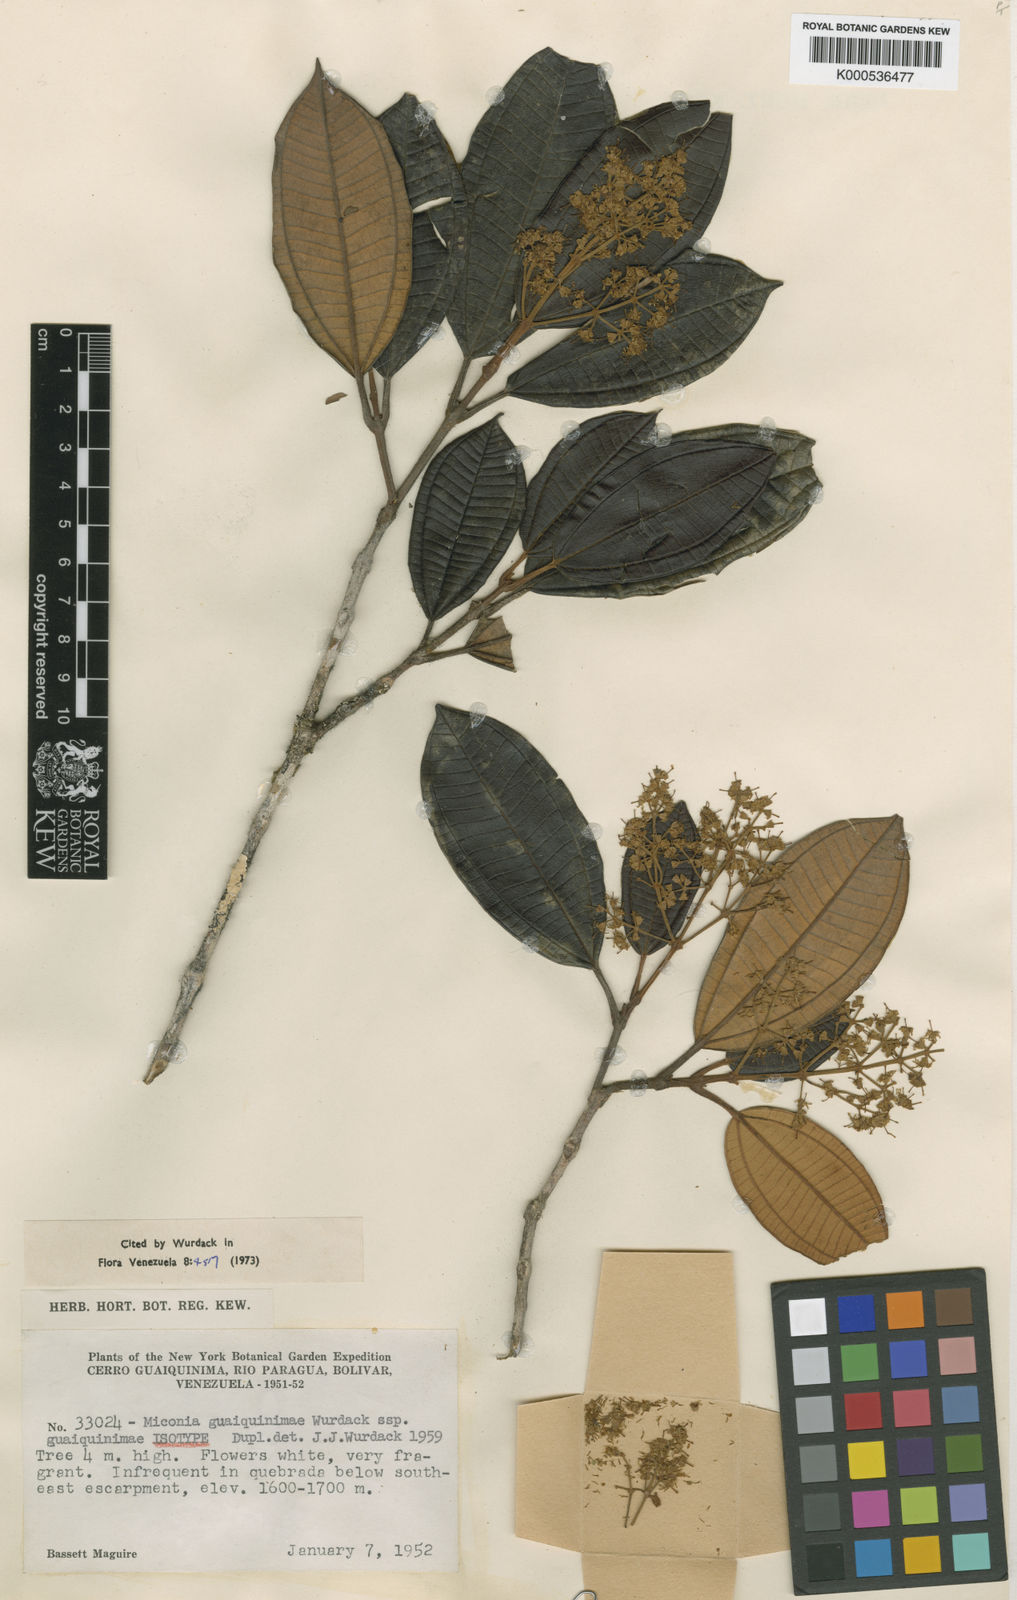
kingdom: Plantae
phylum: Tracheophyta
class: Magnoliopsida
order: Myrtales
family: Melastomataceae
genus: Miconia
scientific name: Miconia guaiquinimae
